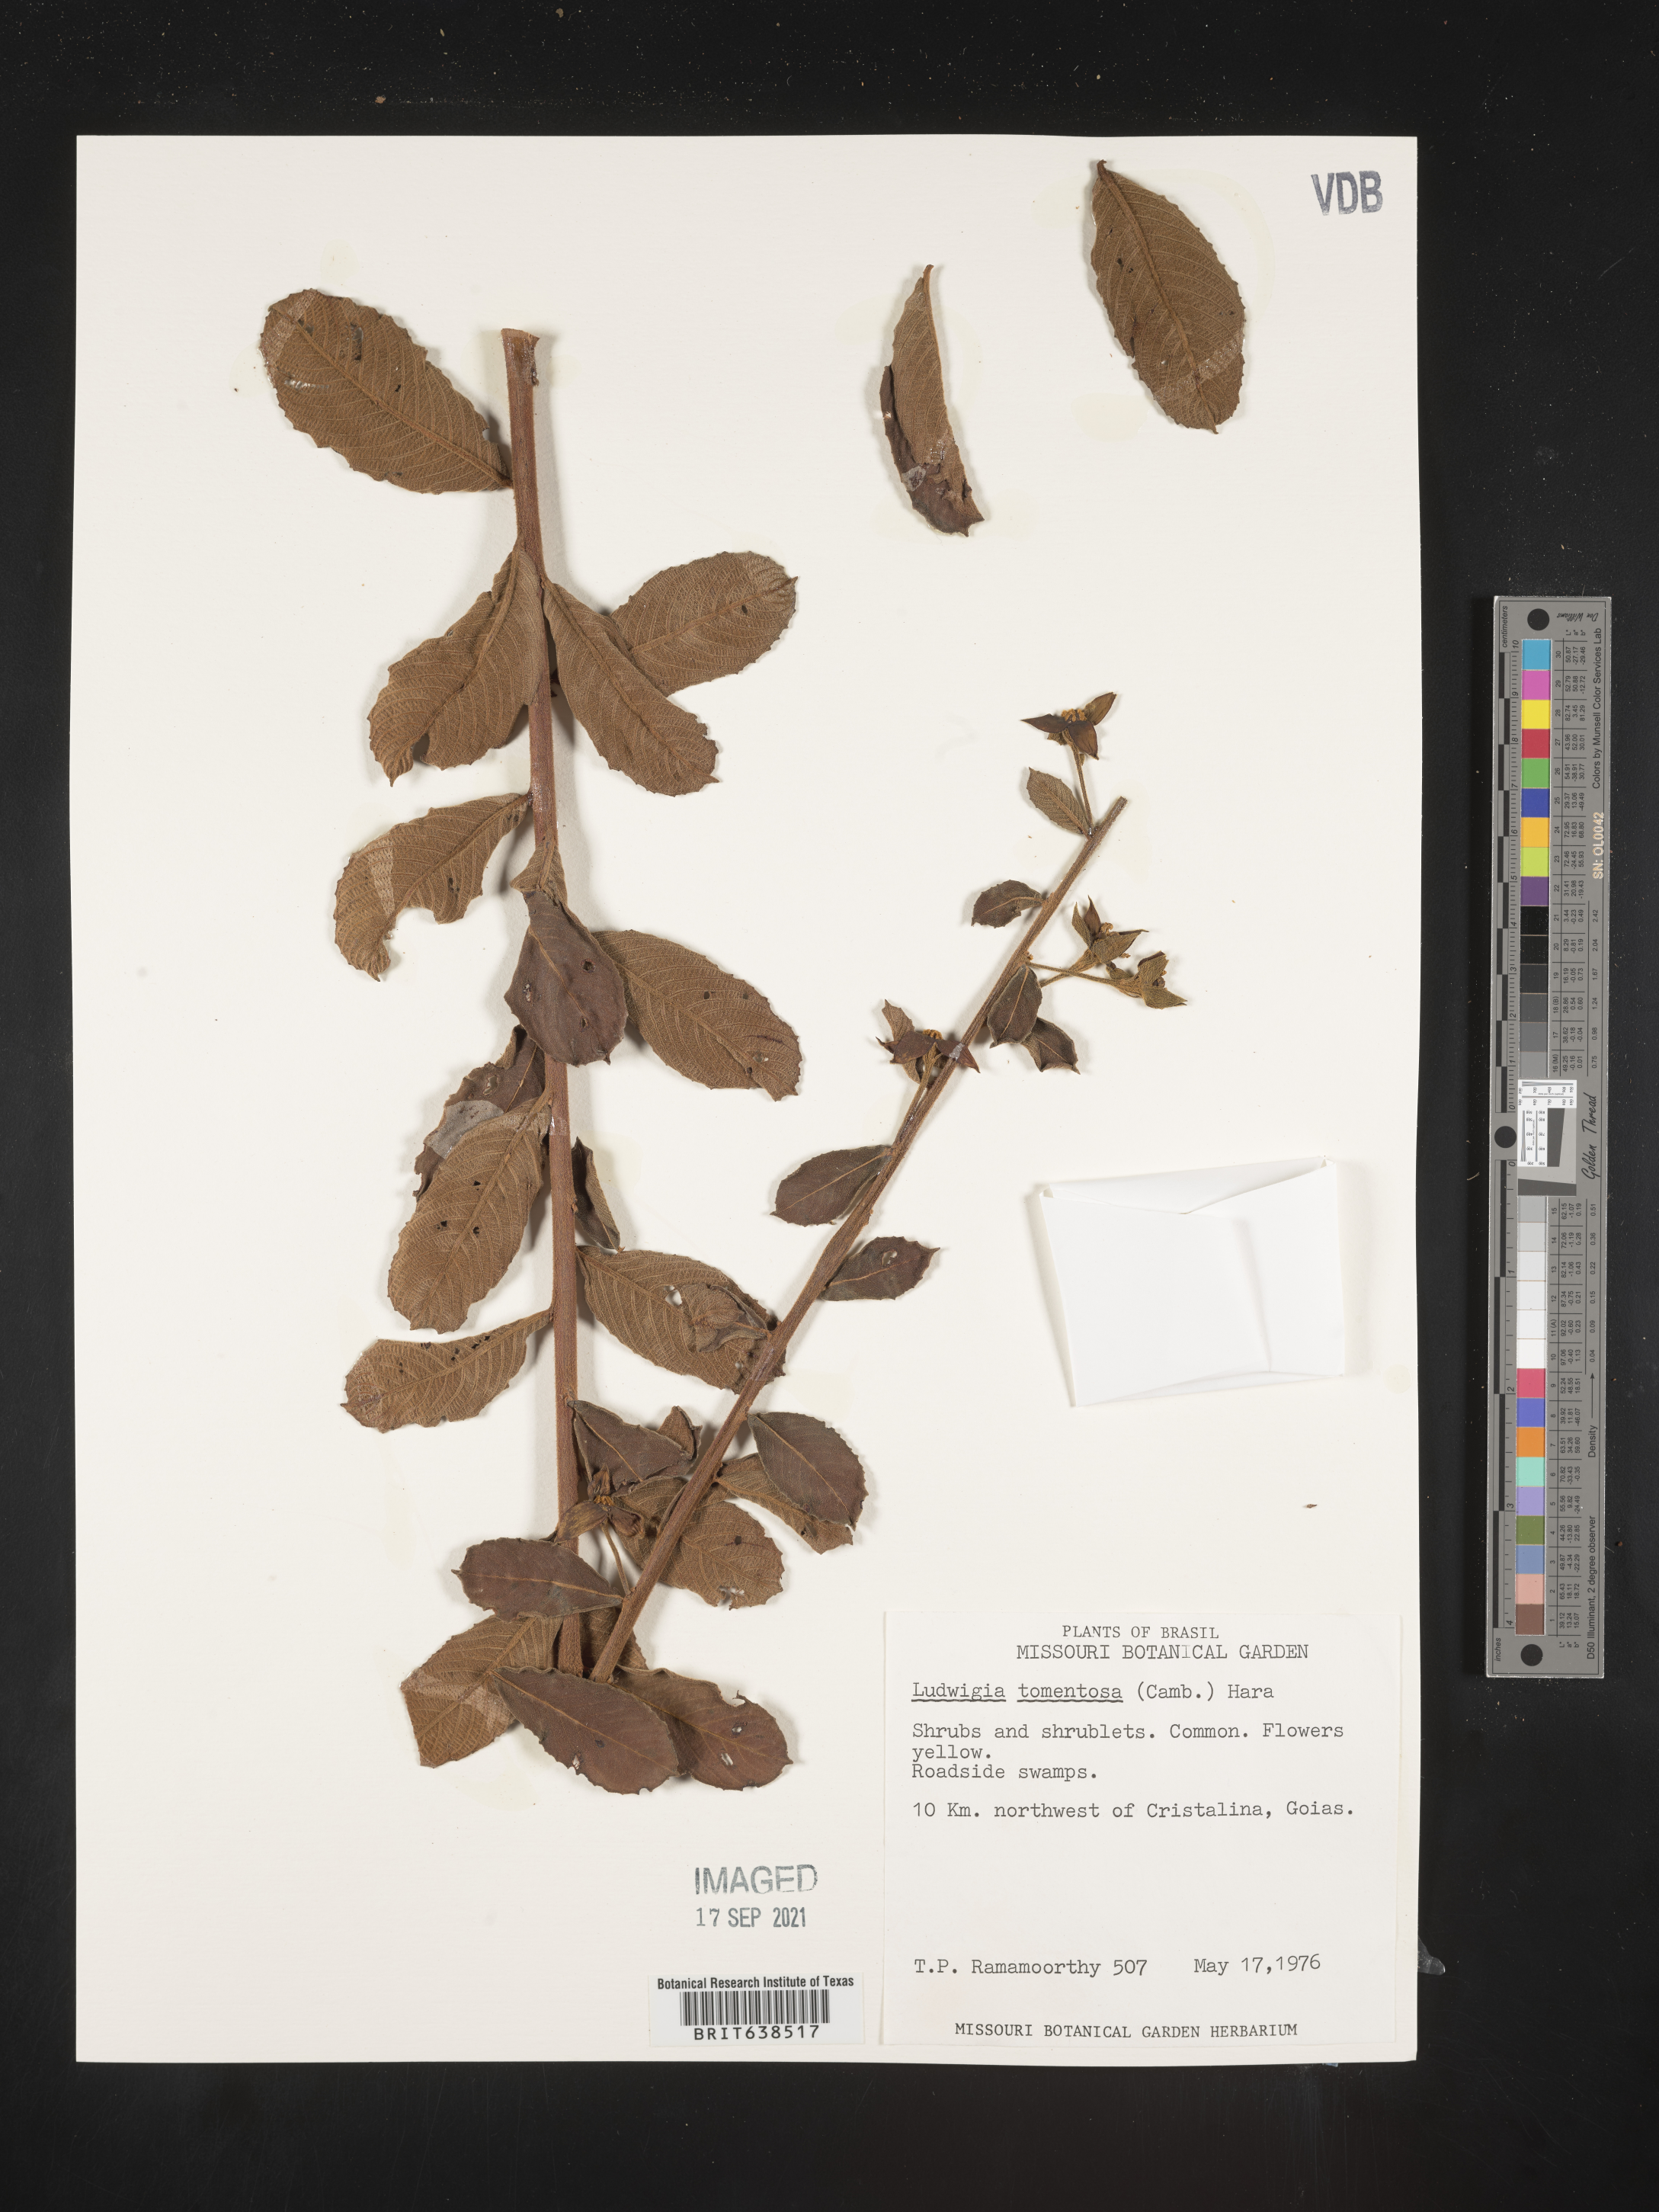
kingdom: Plantae
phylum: Tracheophyta
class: Magnoliopsida
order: Myrtales
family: Onagraceae
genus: Ludwigia
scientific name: Ludwigia
